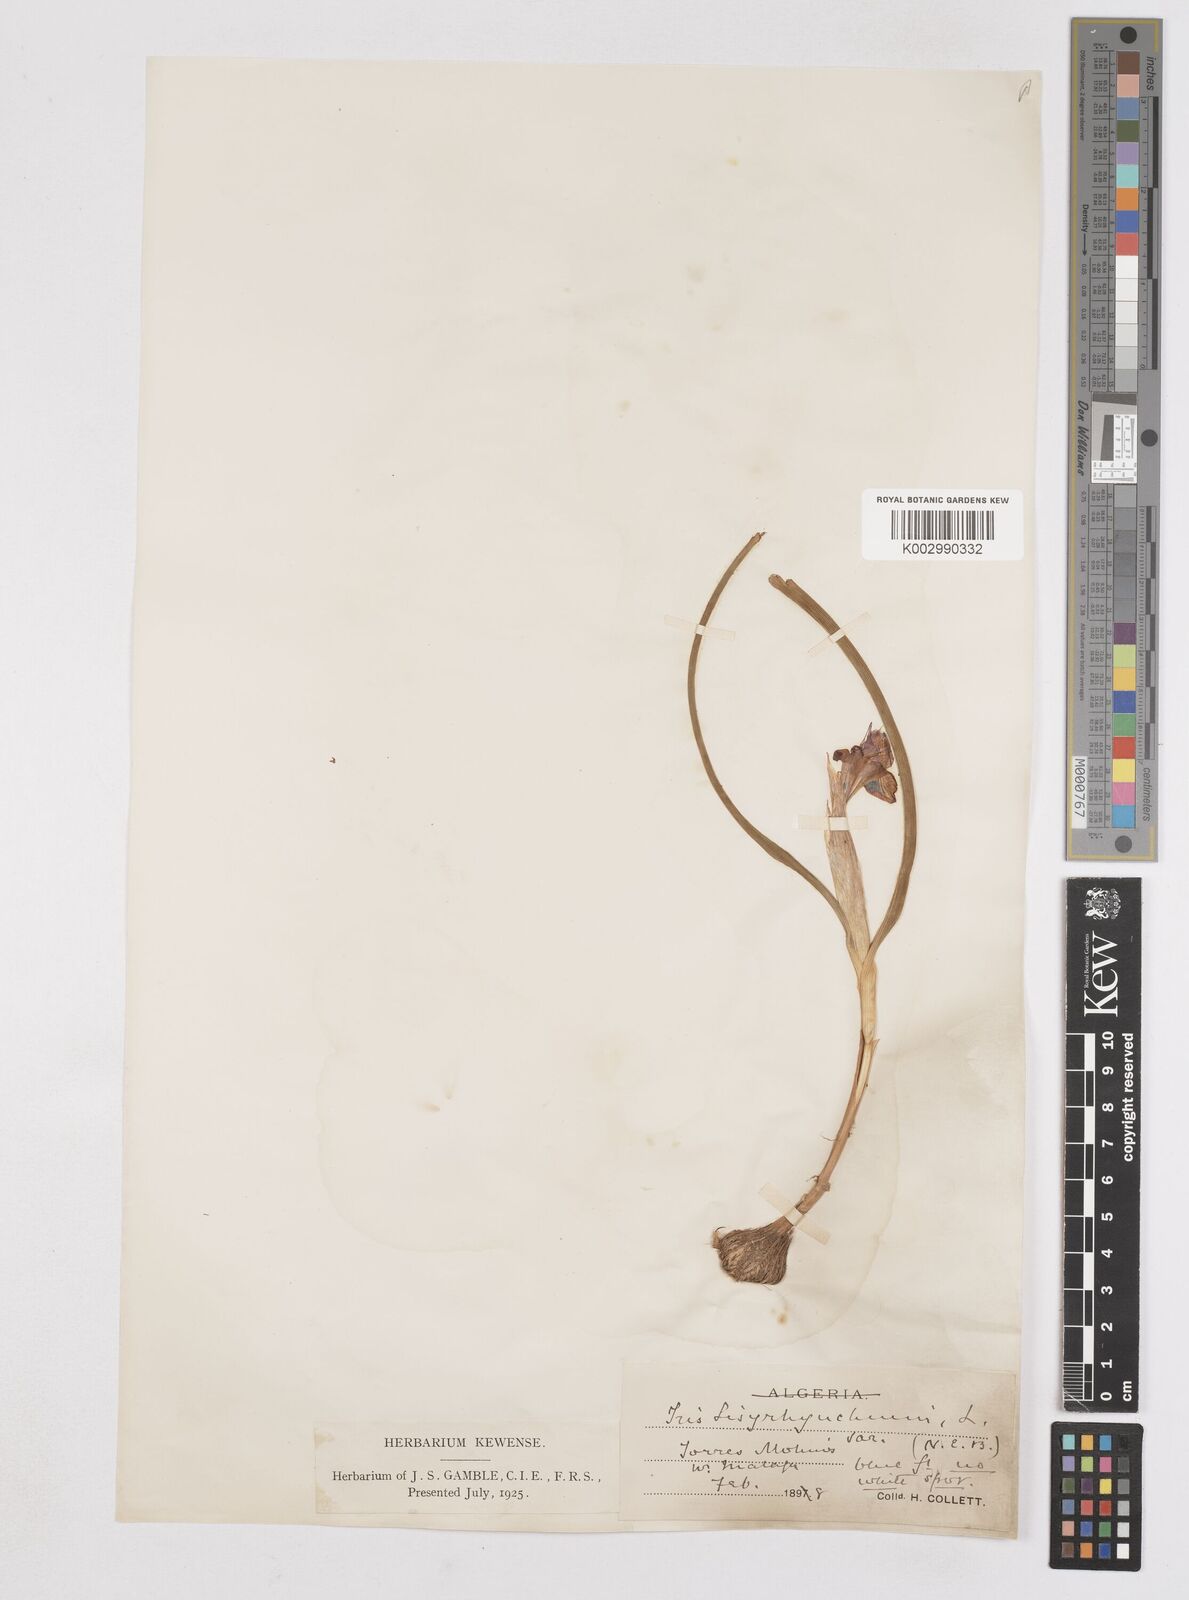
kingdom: Plantae
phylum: Tracheophyta
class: Liliopsida
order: Asparagales
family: Iridaceae
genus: Moraea
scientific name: Moraea sisyrinchium
